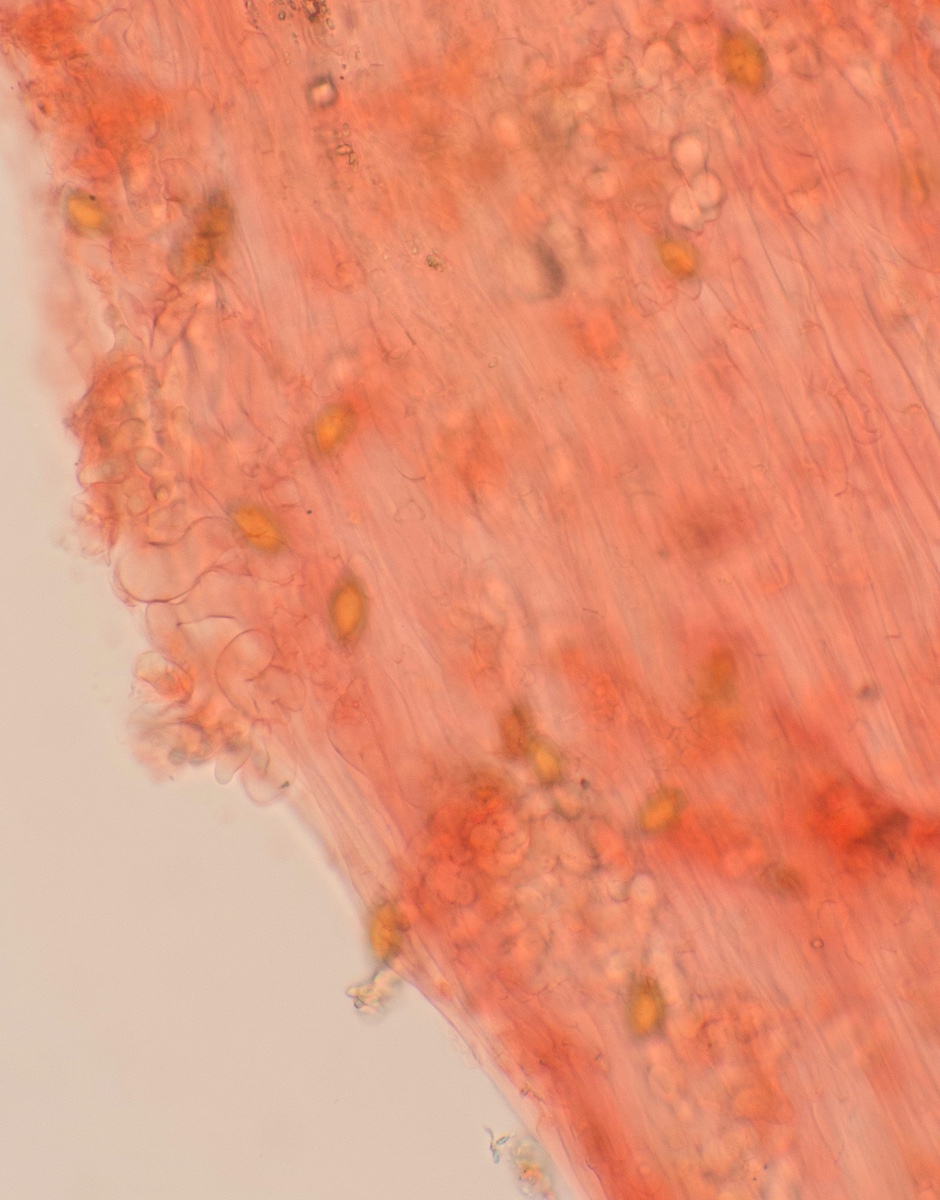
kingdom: Fungi
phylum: Basidiomycota
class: Agaricomycetes
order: Agaricales
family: Bolbitiaceae
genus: Conocybe
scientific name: Conocybe inocybeoides
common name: knold-keglehat
